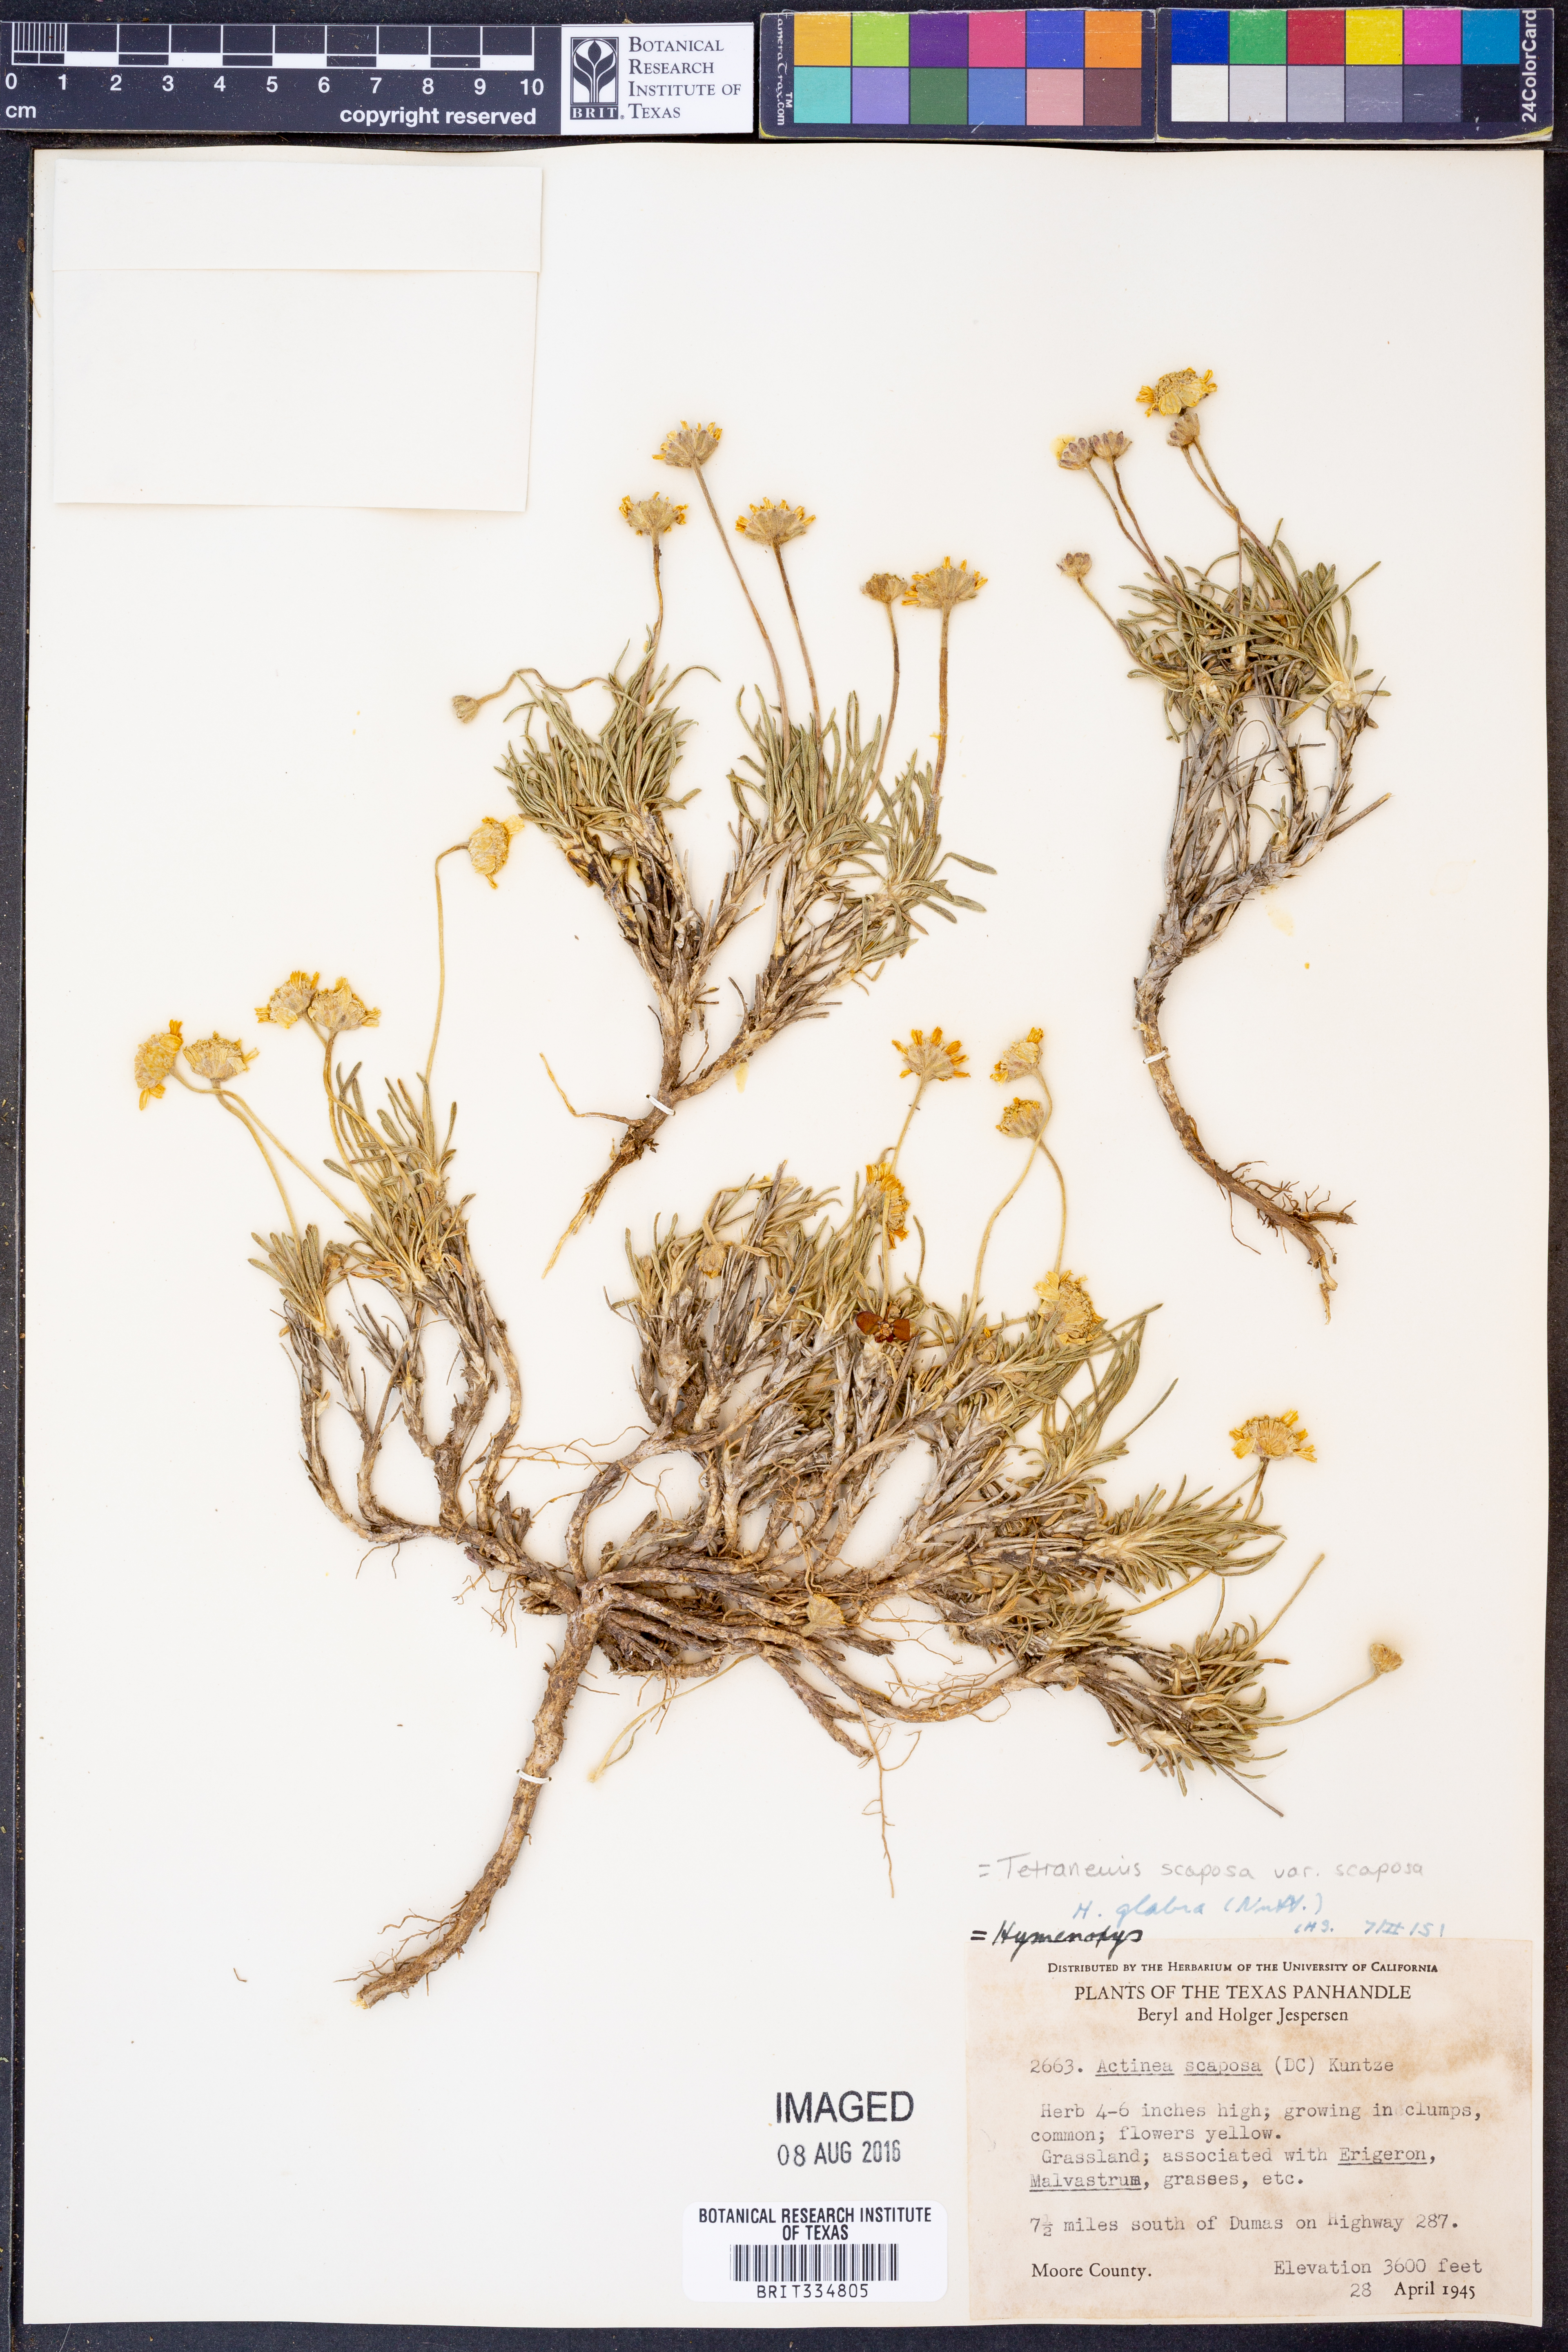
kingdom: Plantae
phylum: Tracheophyta
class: Magnoliopsida
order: Asterales
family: Asteraceae
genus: Tetraneuris
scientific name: Tetraneuris scaposa
